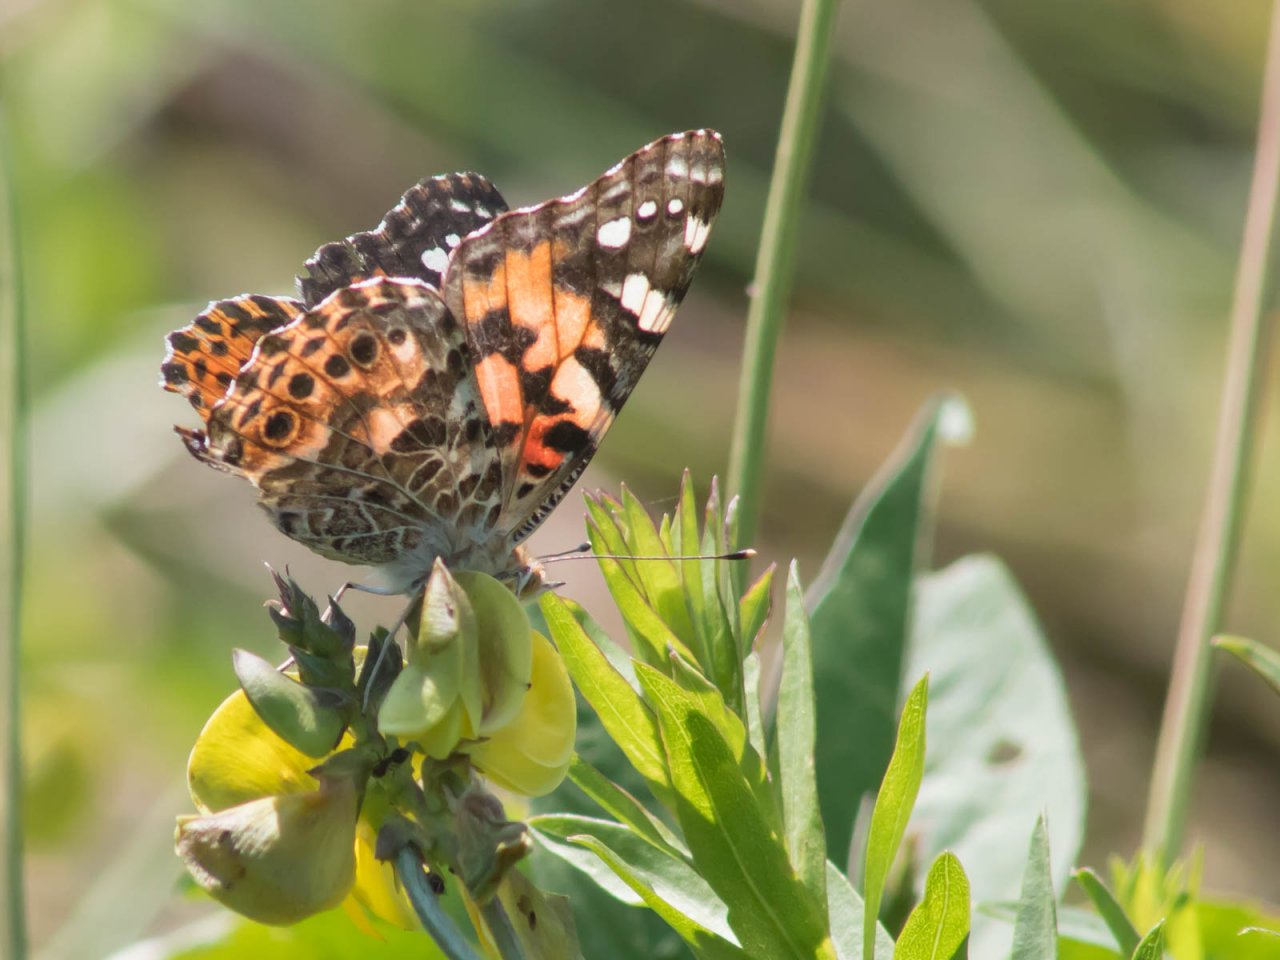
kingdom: Animalia
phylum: Arthropoda
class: Insecta
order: Lepidoptera
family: Nymphalidae
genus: Vanessa
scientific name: Vanessa cardui
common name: Painted Lady
